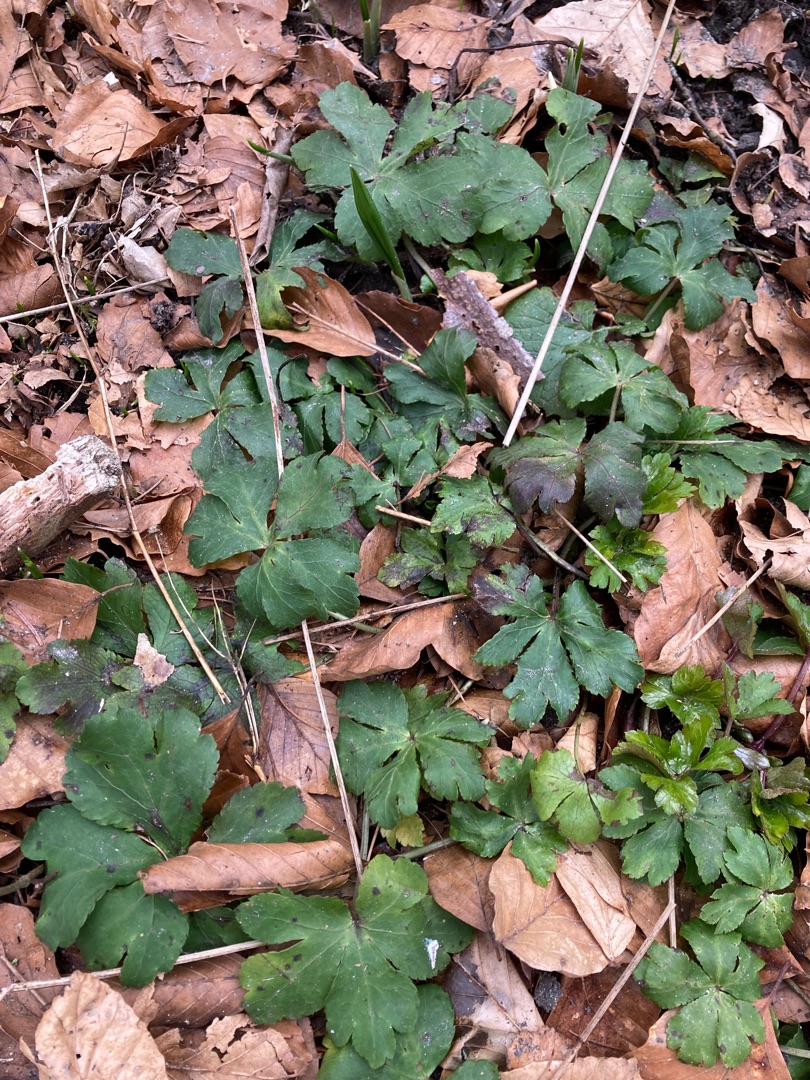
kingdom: Plantae
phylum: Tracheophyta
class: Magnoliopsida
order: Apiales
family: Apiaceae
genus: Sanicula
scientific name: Sanicula europaea
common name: Sanikel
